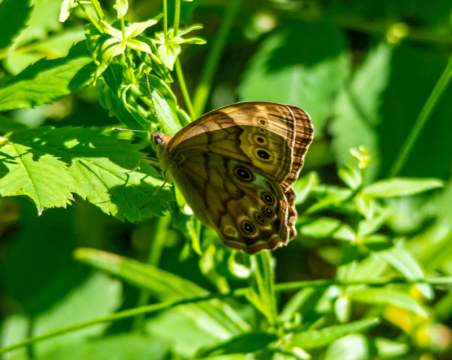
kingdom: Animalia
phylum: Arthropoda
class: Insecta
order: Lepidoptera
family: Nymphalidae
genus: Lethe
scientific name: Lethe anthedon
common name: Northern Pearly-Eye
